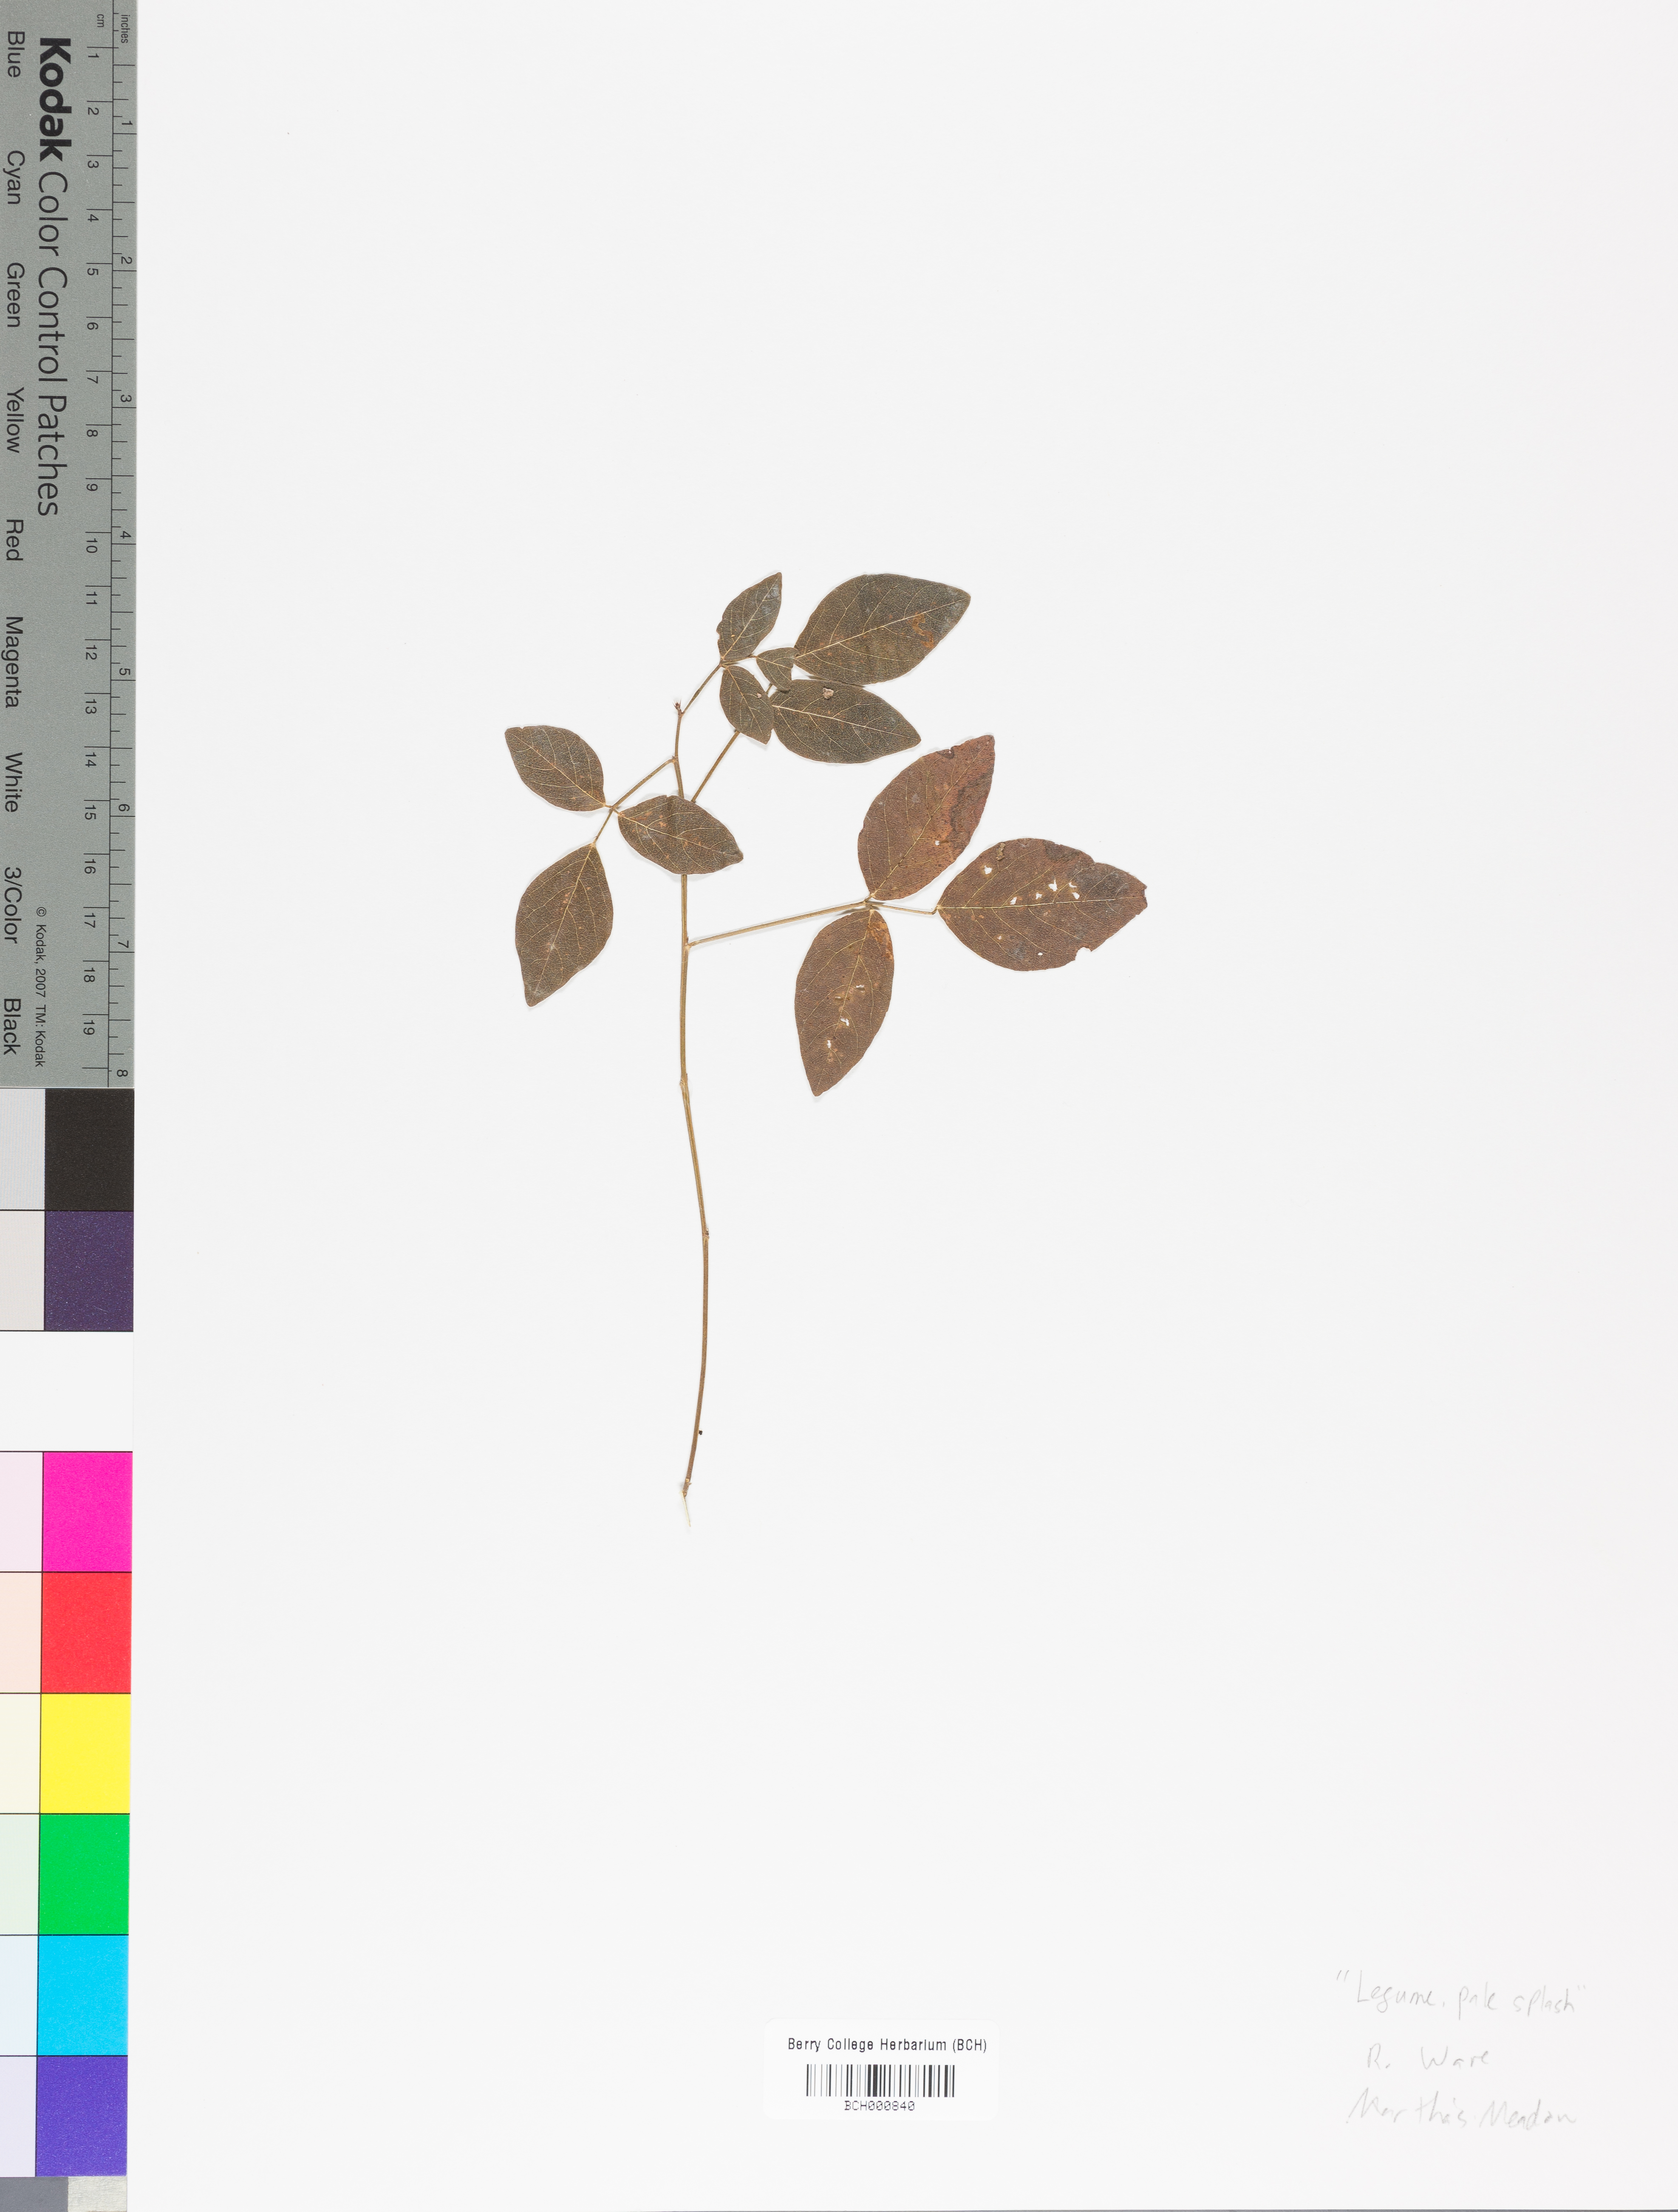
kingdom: Plantae
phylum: Tracheophyta
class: Magnoliopsida
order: Lamiales
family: Acanthaceae
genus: Adhatoda
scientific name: Adhatoda
